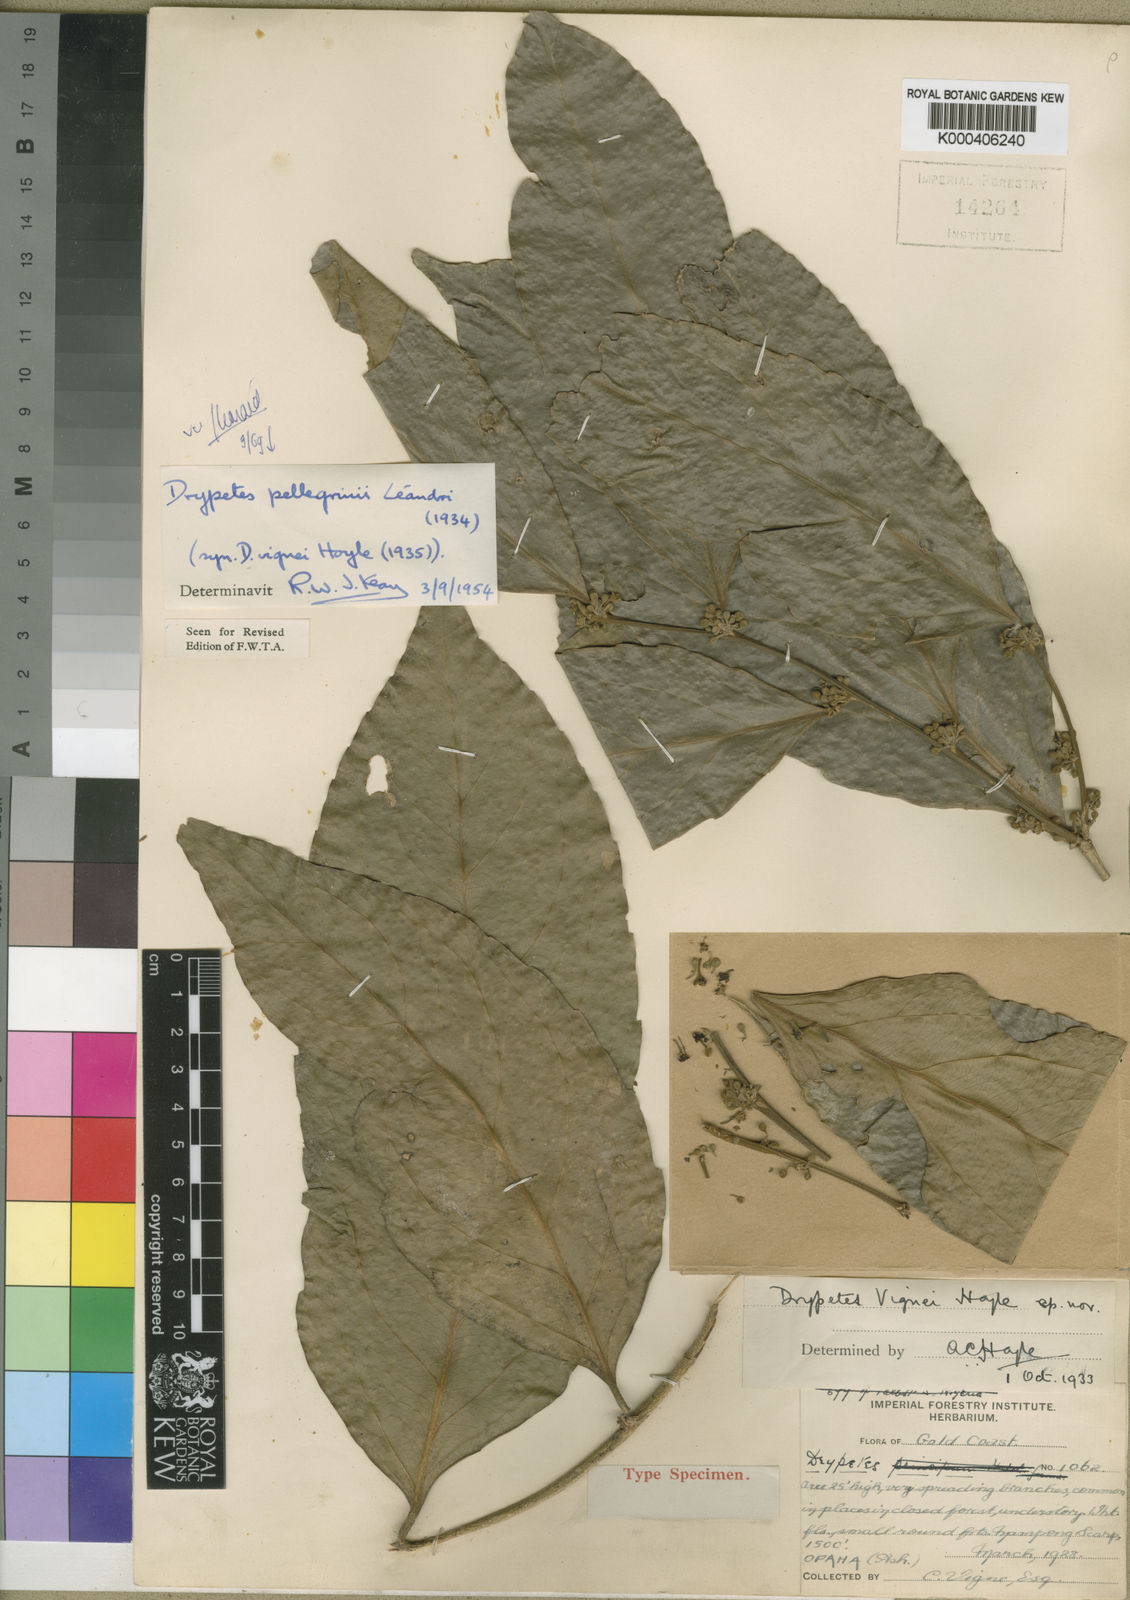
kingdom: Plantae
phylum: Tracheophyta
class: Magnoliopsida
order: Malpighiales
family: Putranjivaceae
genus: Drypetes
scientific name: Drypetes pellegrinii
